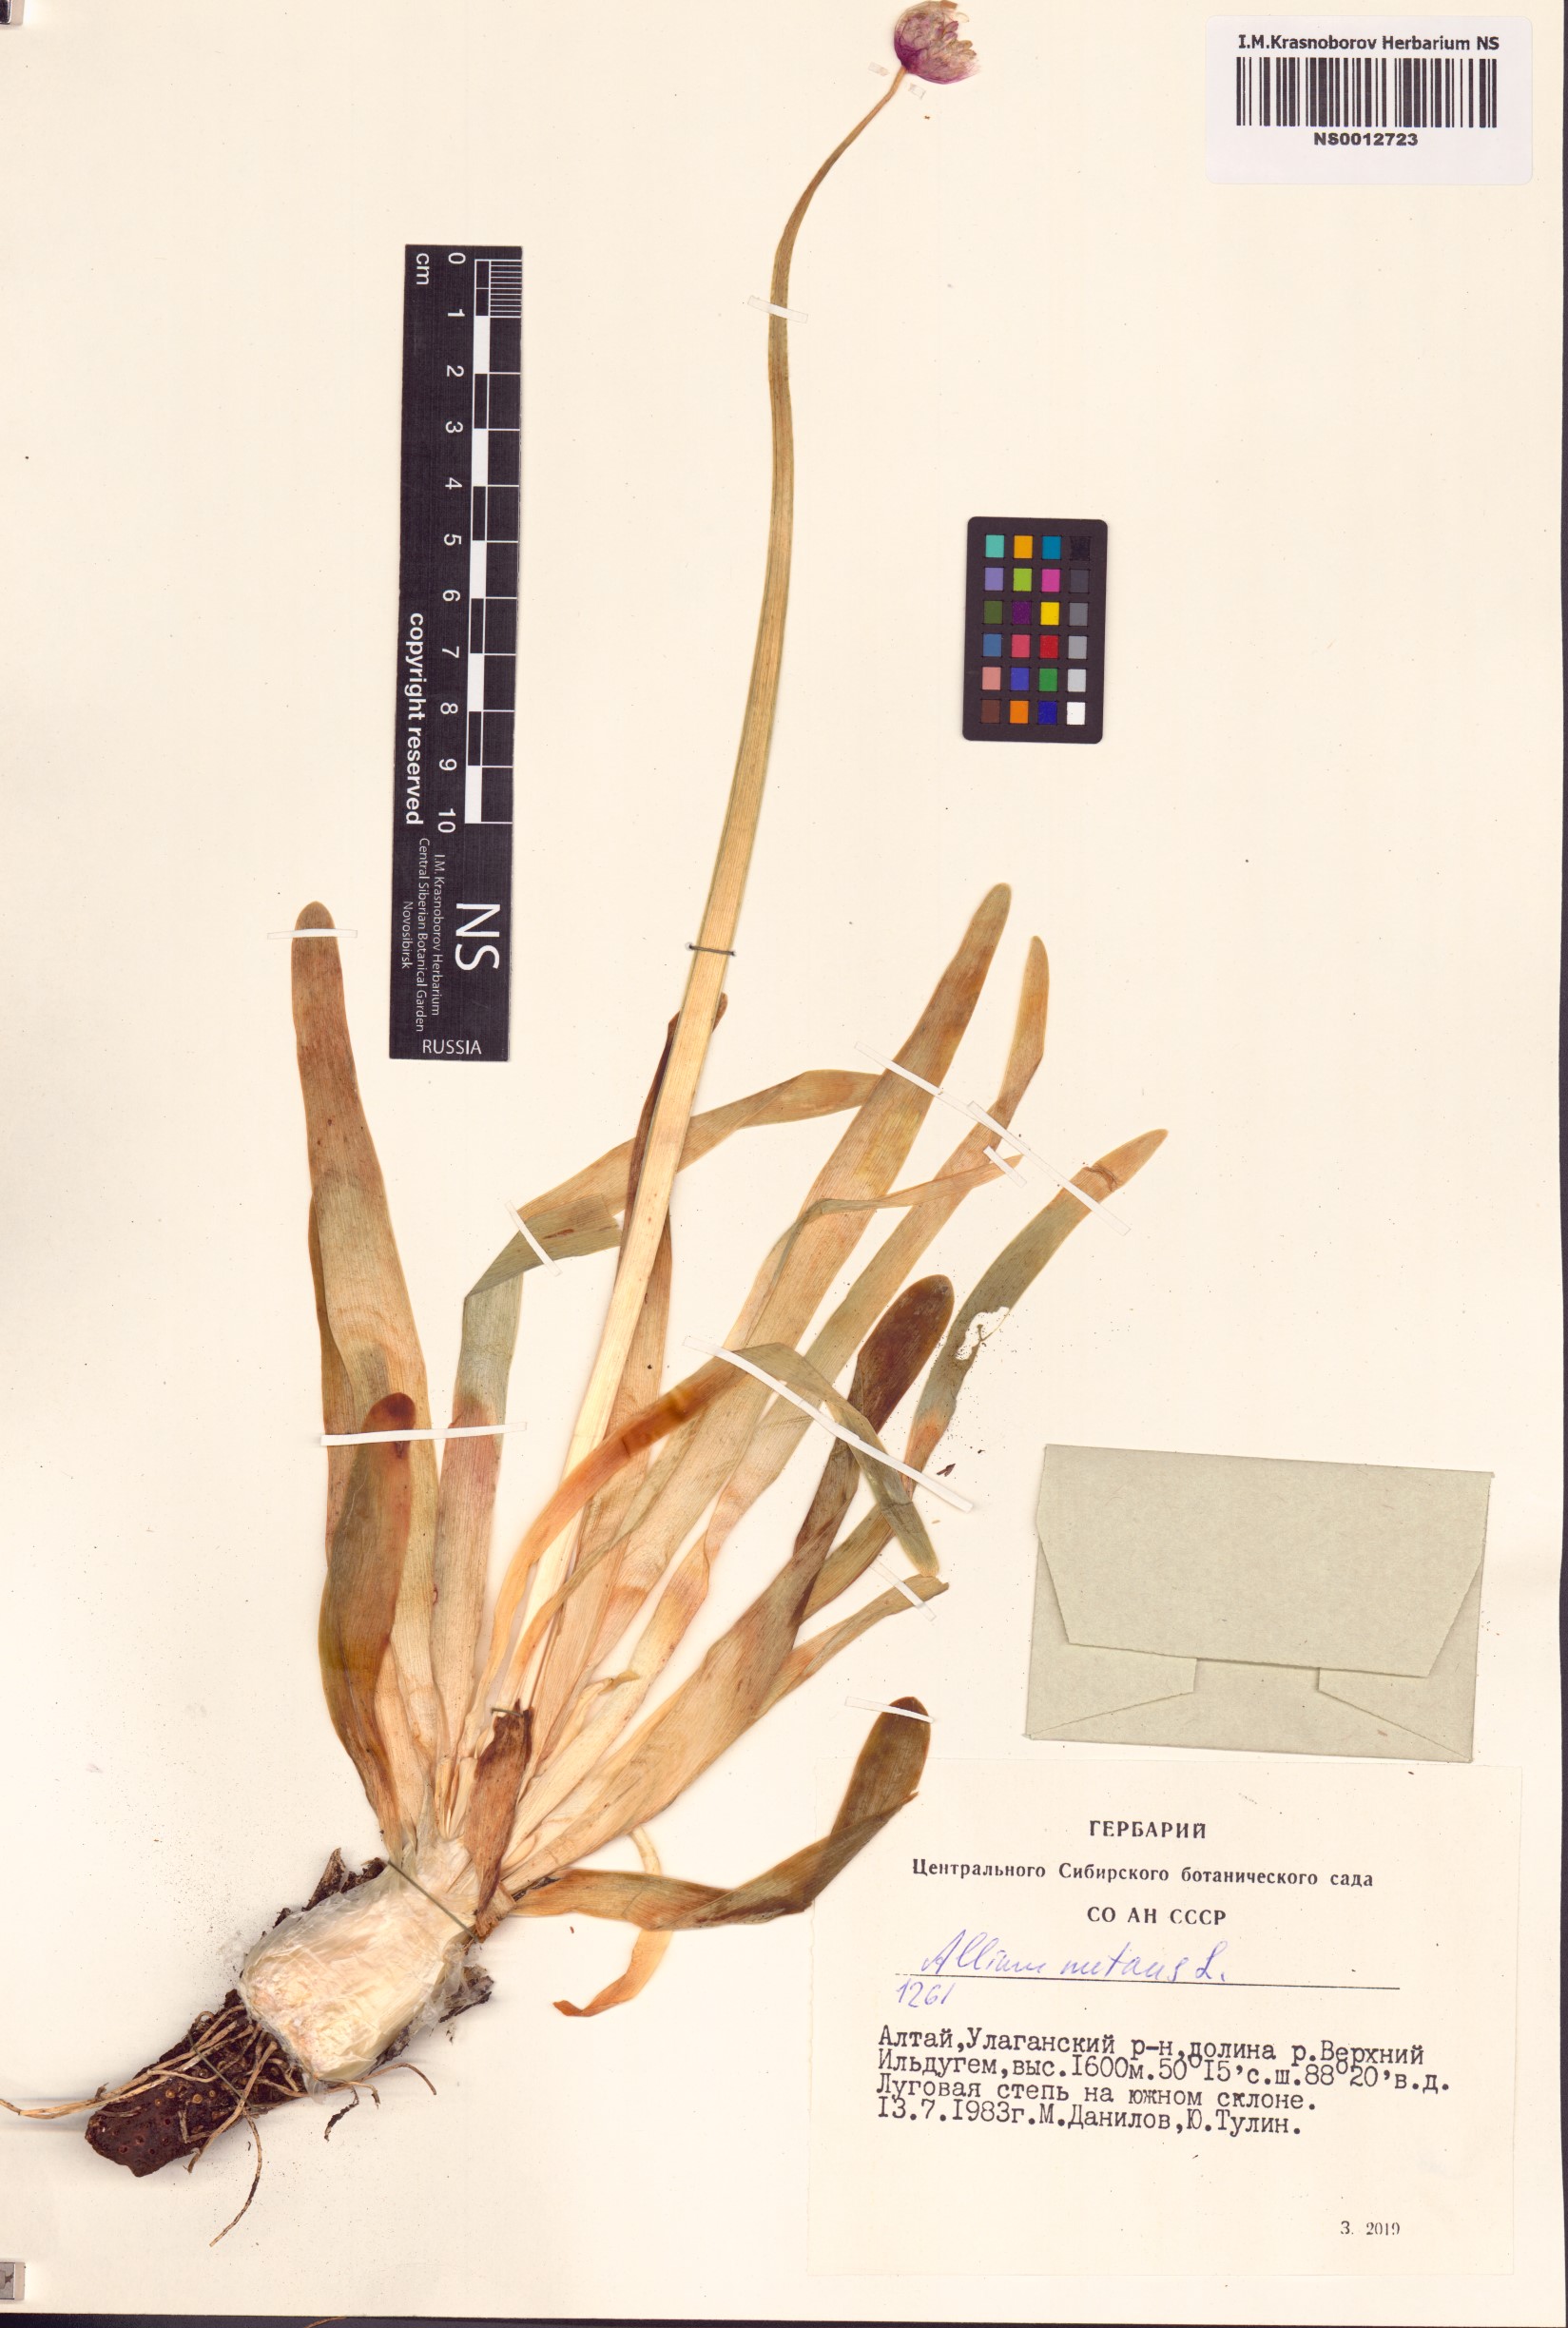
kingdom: Plantae
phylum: Tracheophyta
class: Liliopsida
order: Asparagales
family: Amaryllidaceae
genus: Allium
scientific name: Allium nutans
